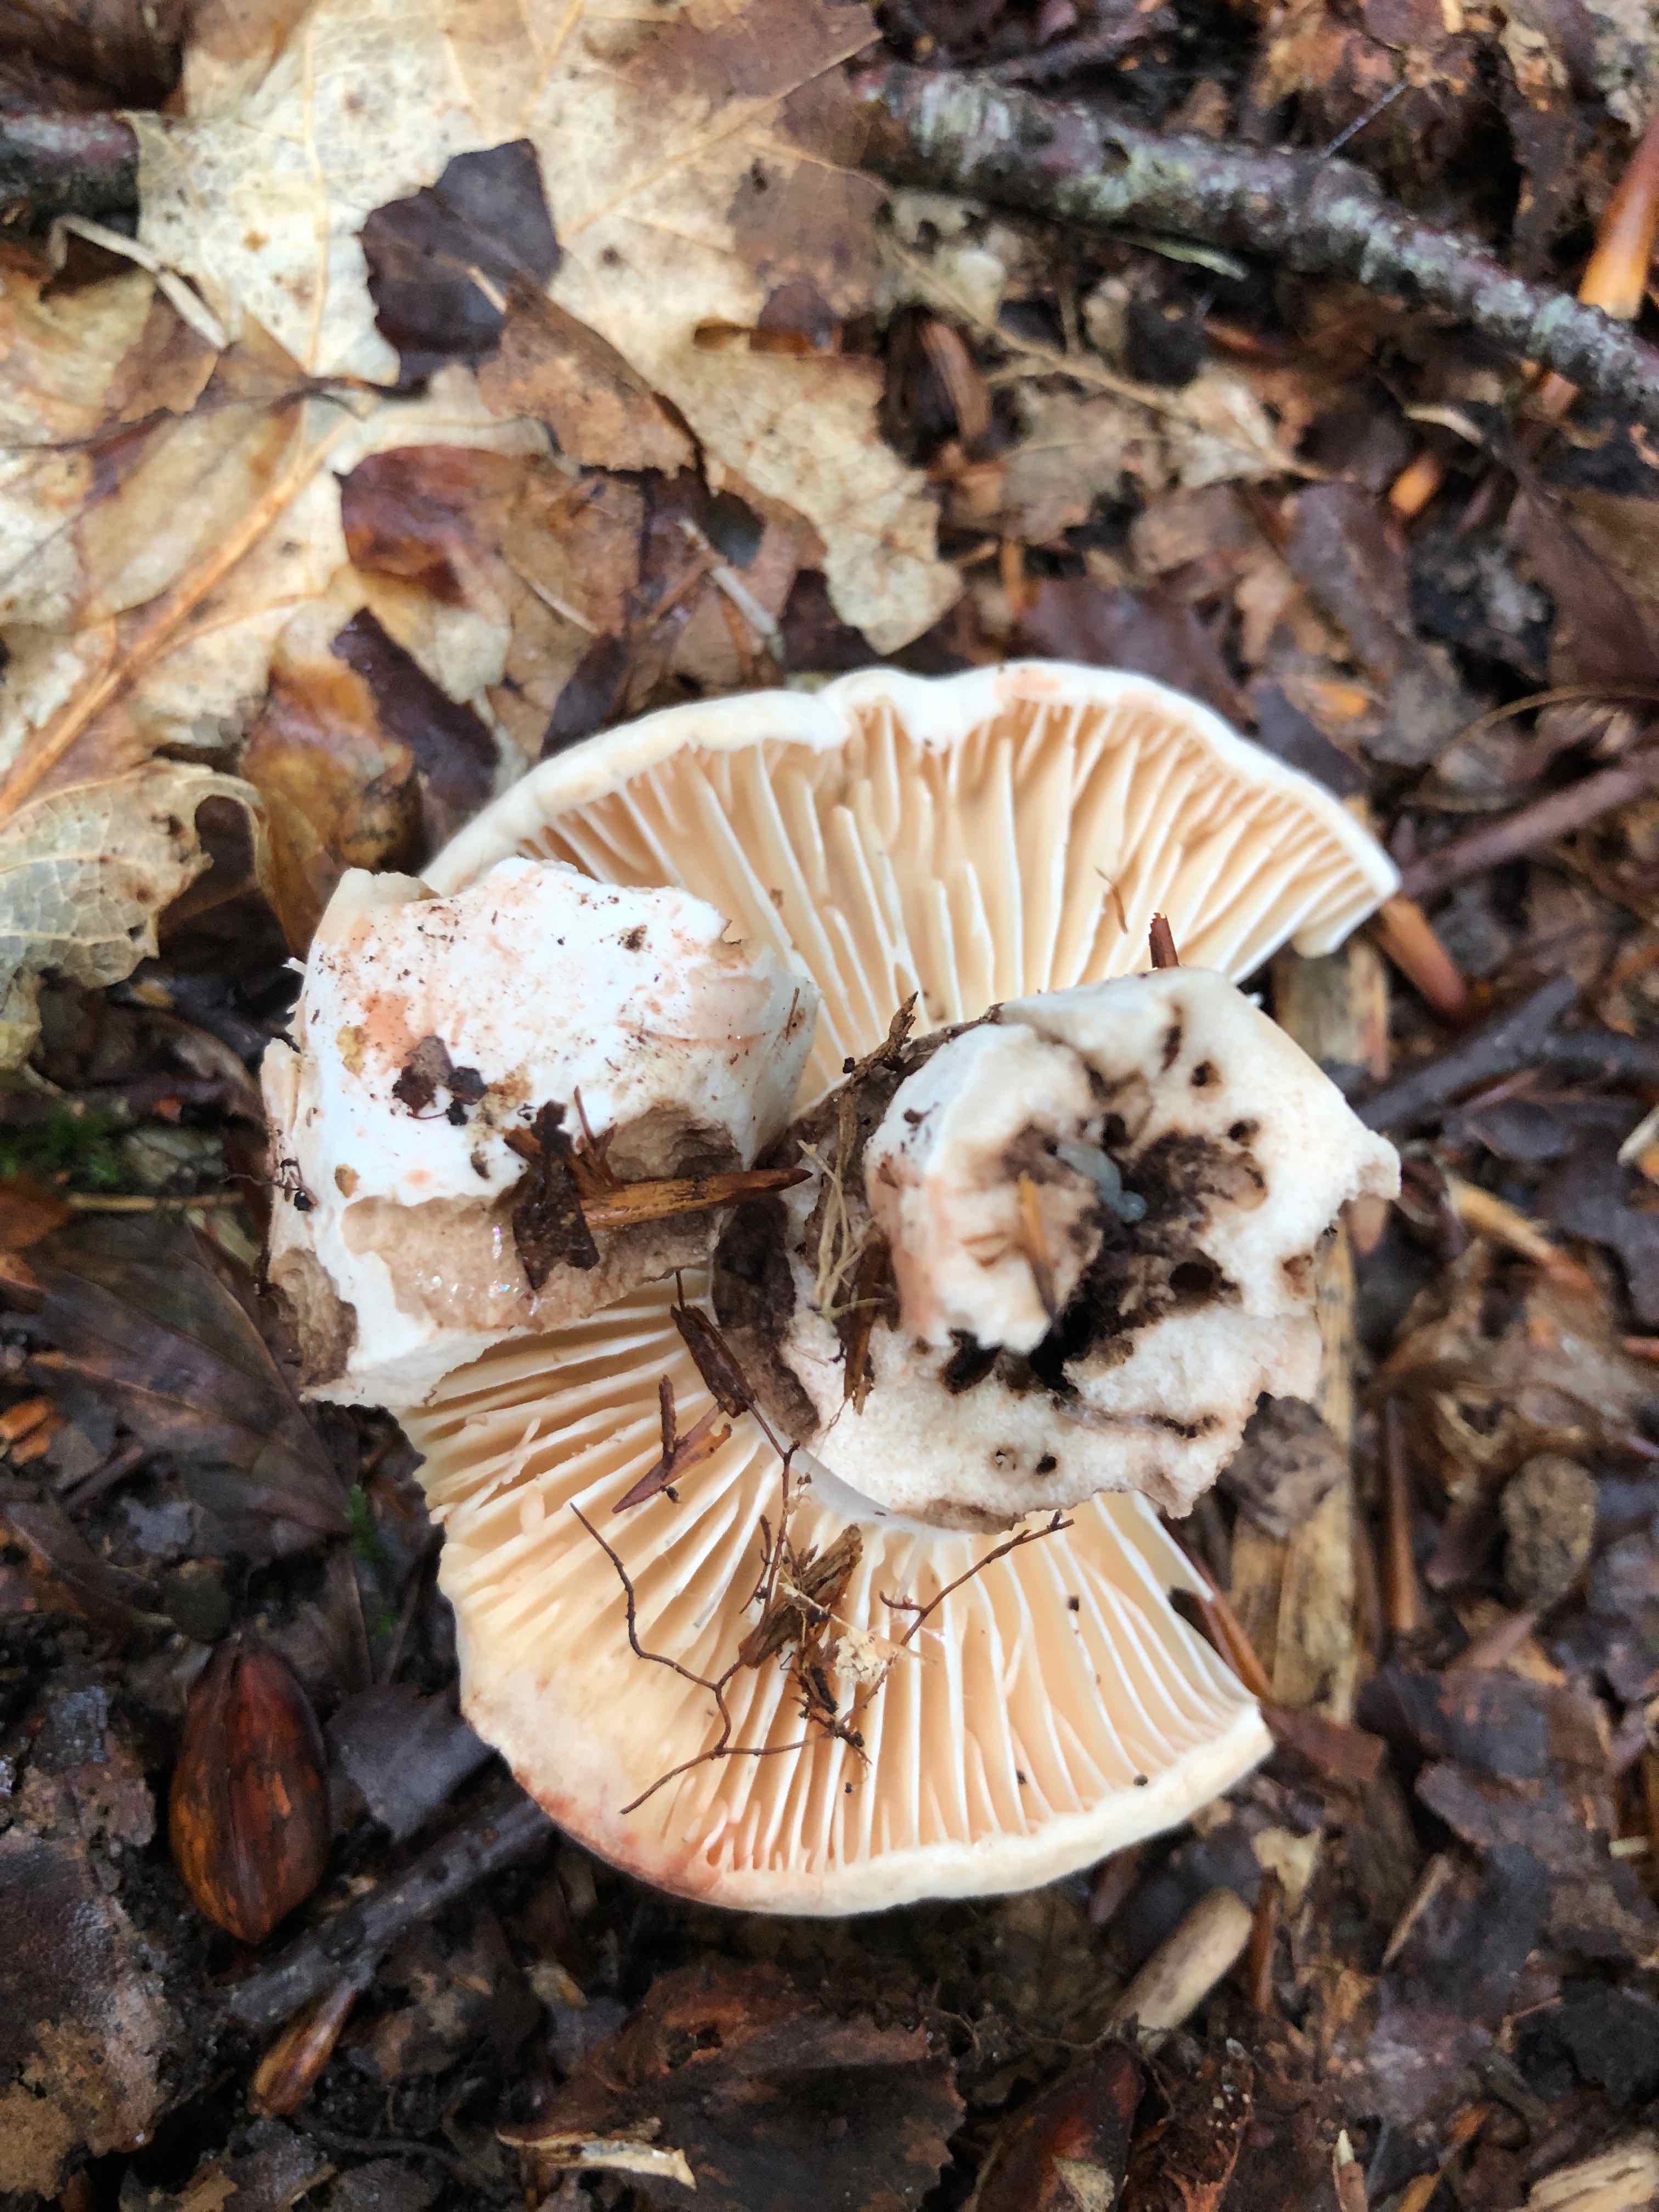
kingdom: Fungi
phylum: Basidiomycota
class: Agaricomycetes
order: Russulales
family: Russulaceae
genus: Russula
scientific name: Russula adusta
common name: sværtende skørhat
